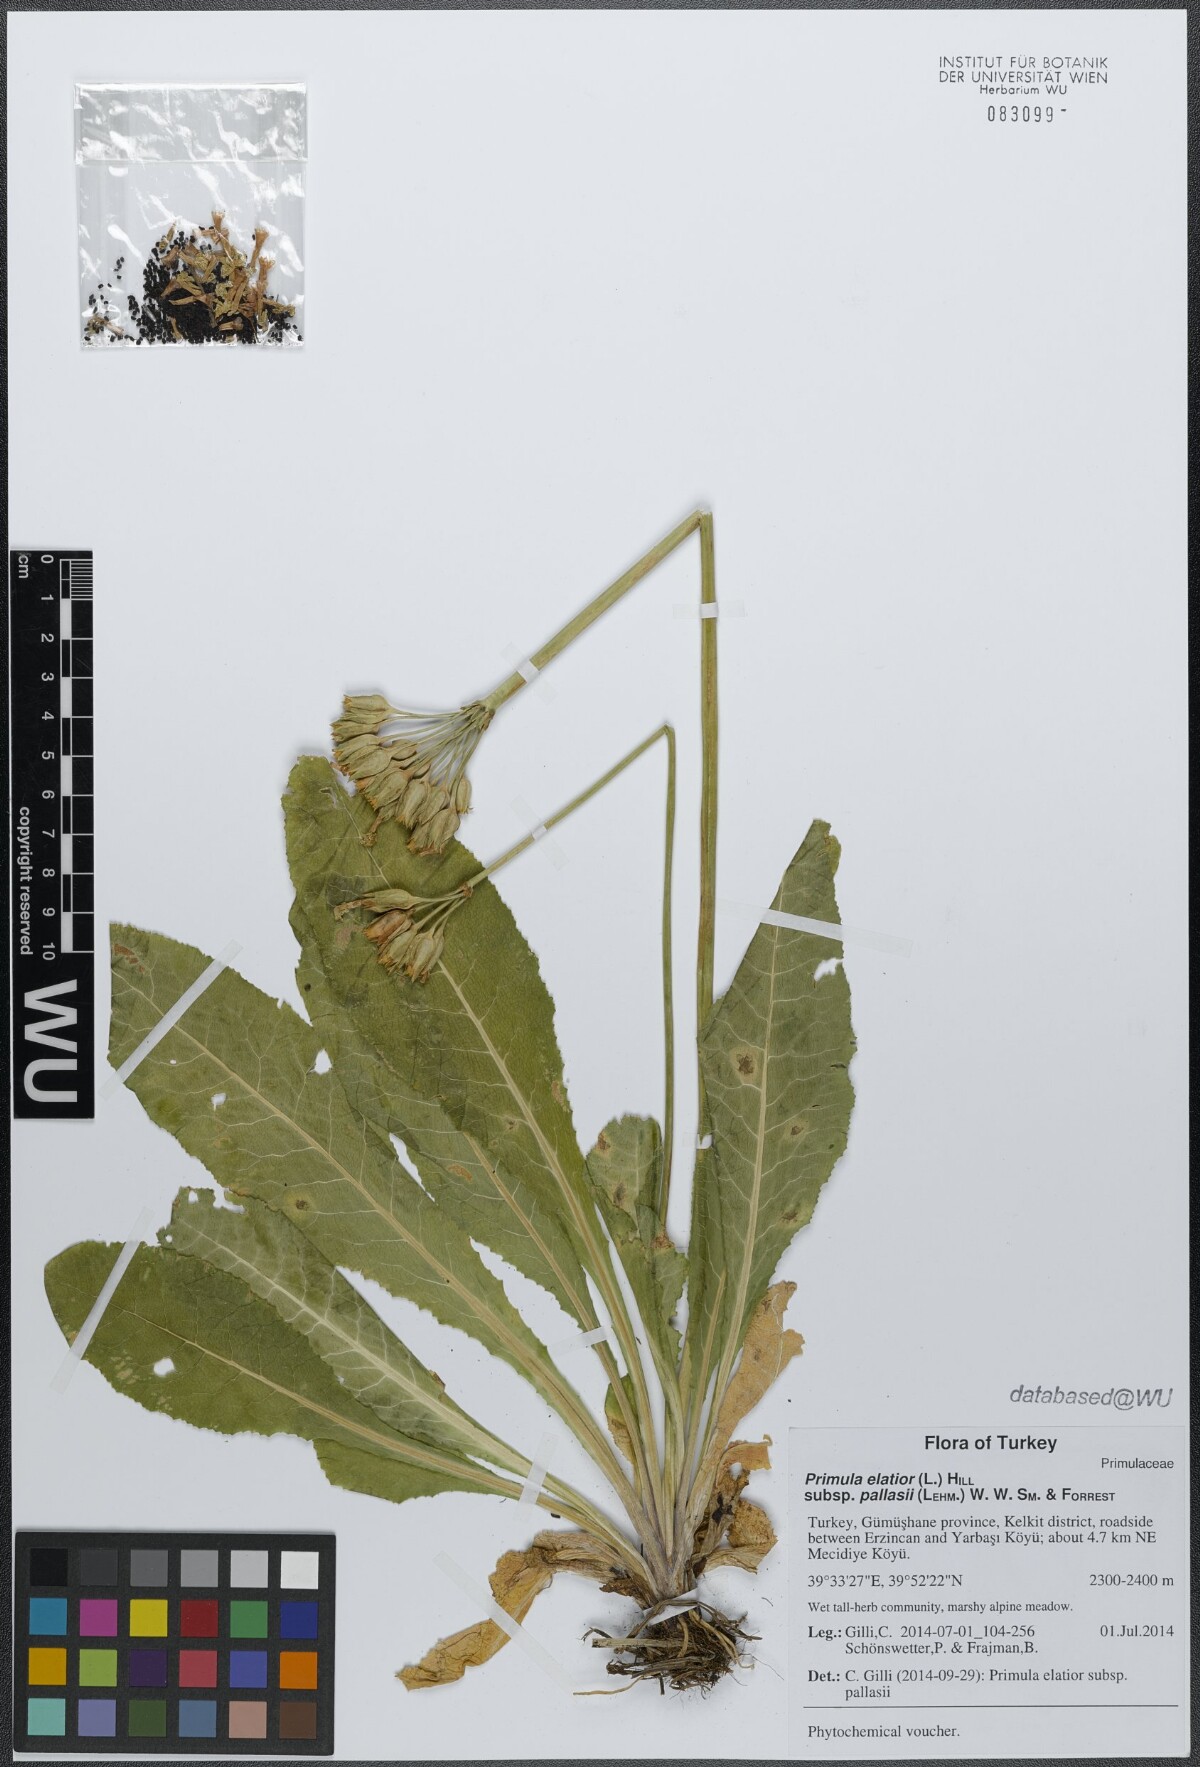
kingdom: Plantae
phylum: Tracheophyta
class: Magnoliopsida
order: Ericales
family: Primulaceae
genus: Primula
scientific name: Primula elatior
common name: Oxlip
